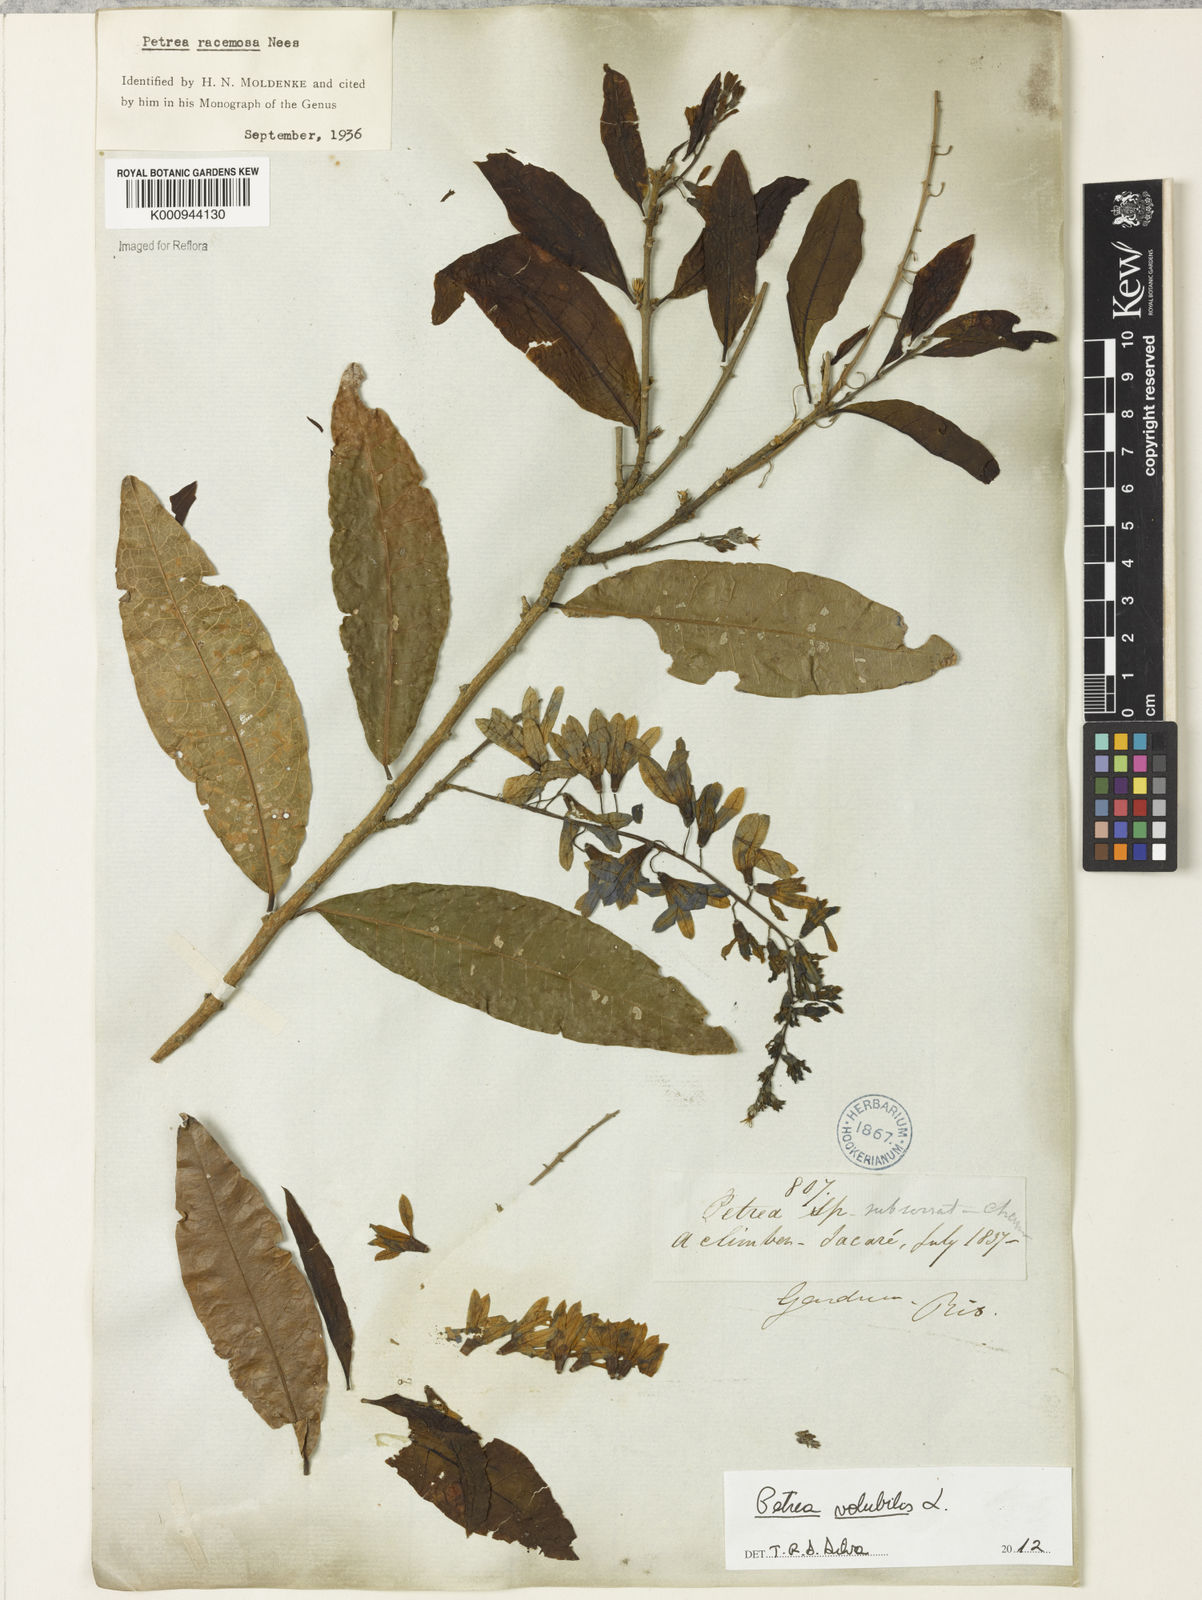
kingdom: Plantae
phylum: Tracheophyta
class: Magnoliopsida
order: Lamiales
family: Verbenaceae
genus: Petrea
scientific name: Petrea volubilis
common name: Queen's-wreath
